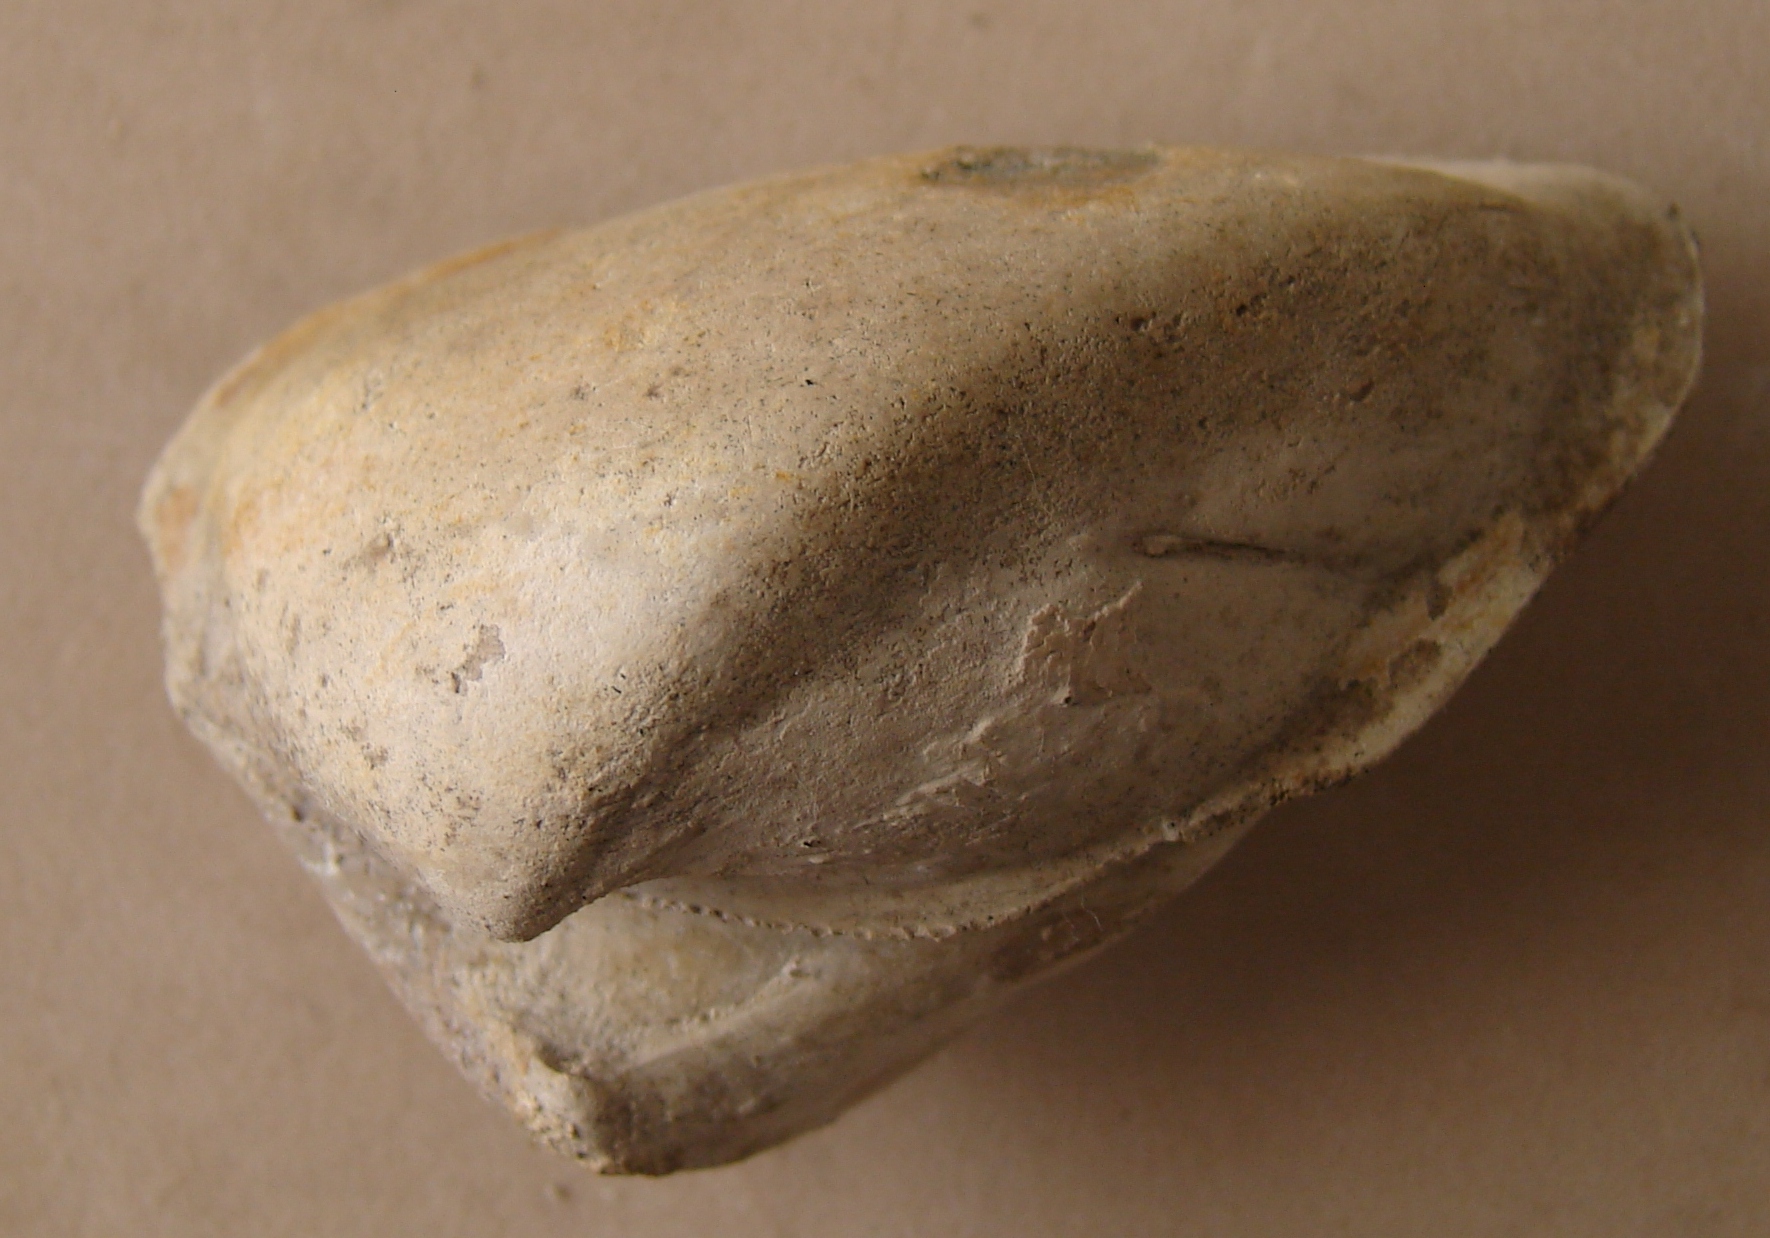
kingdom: Animalia
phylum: Mollusca
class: Bivalvia
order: Arcida
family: Arcidae
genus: Arca
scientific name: Arca passyana
